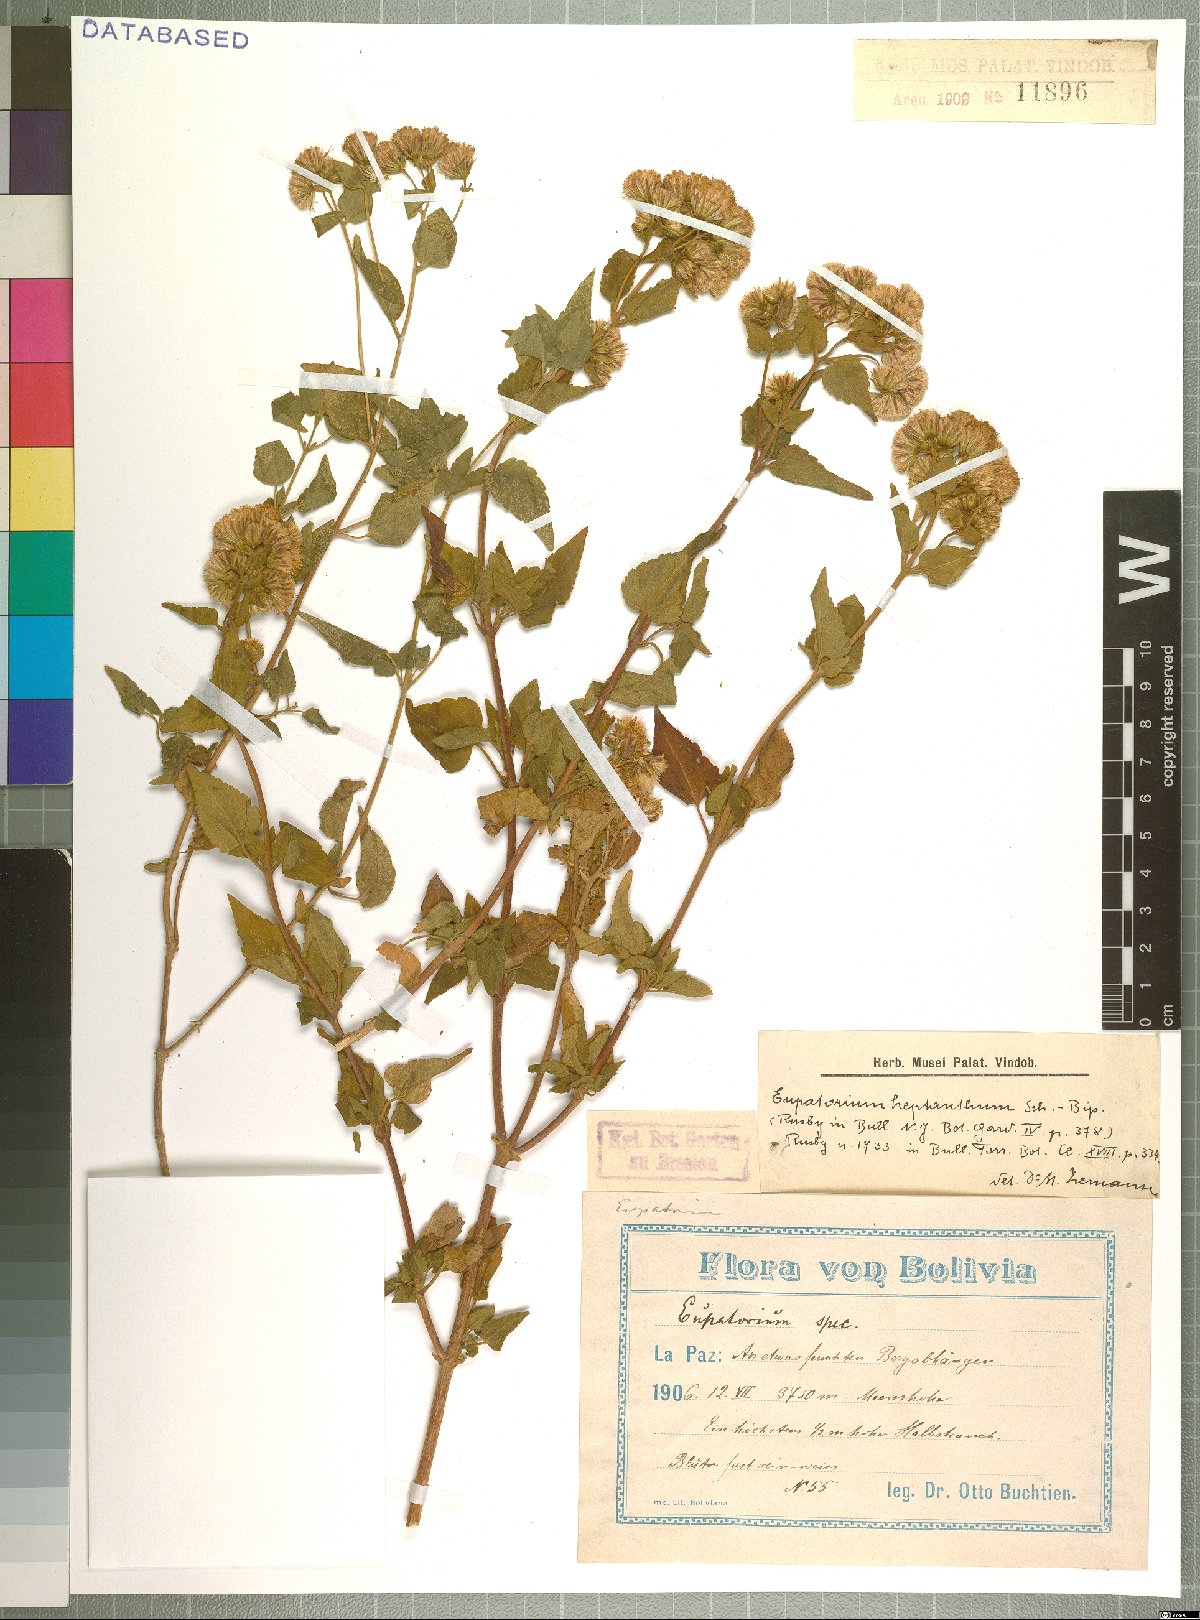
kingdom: Plantae
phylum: Tracheophyta
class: Magnoliopsida
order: Asterales
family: Asteraceae
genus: Ophryosporus
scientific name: Ophryosporus heptanthus
